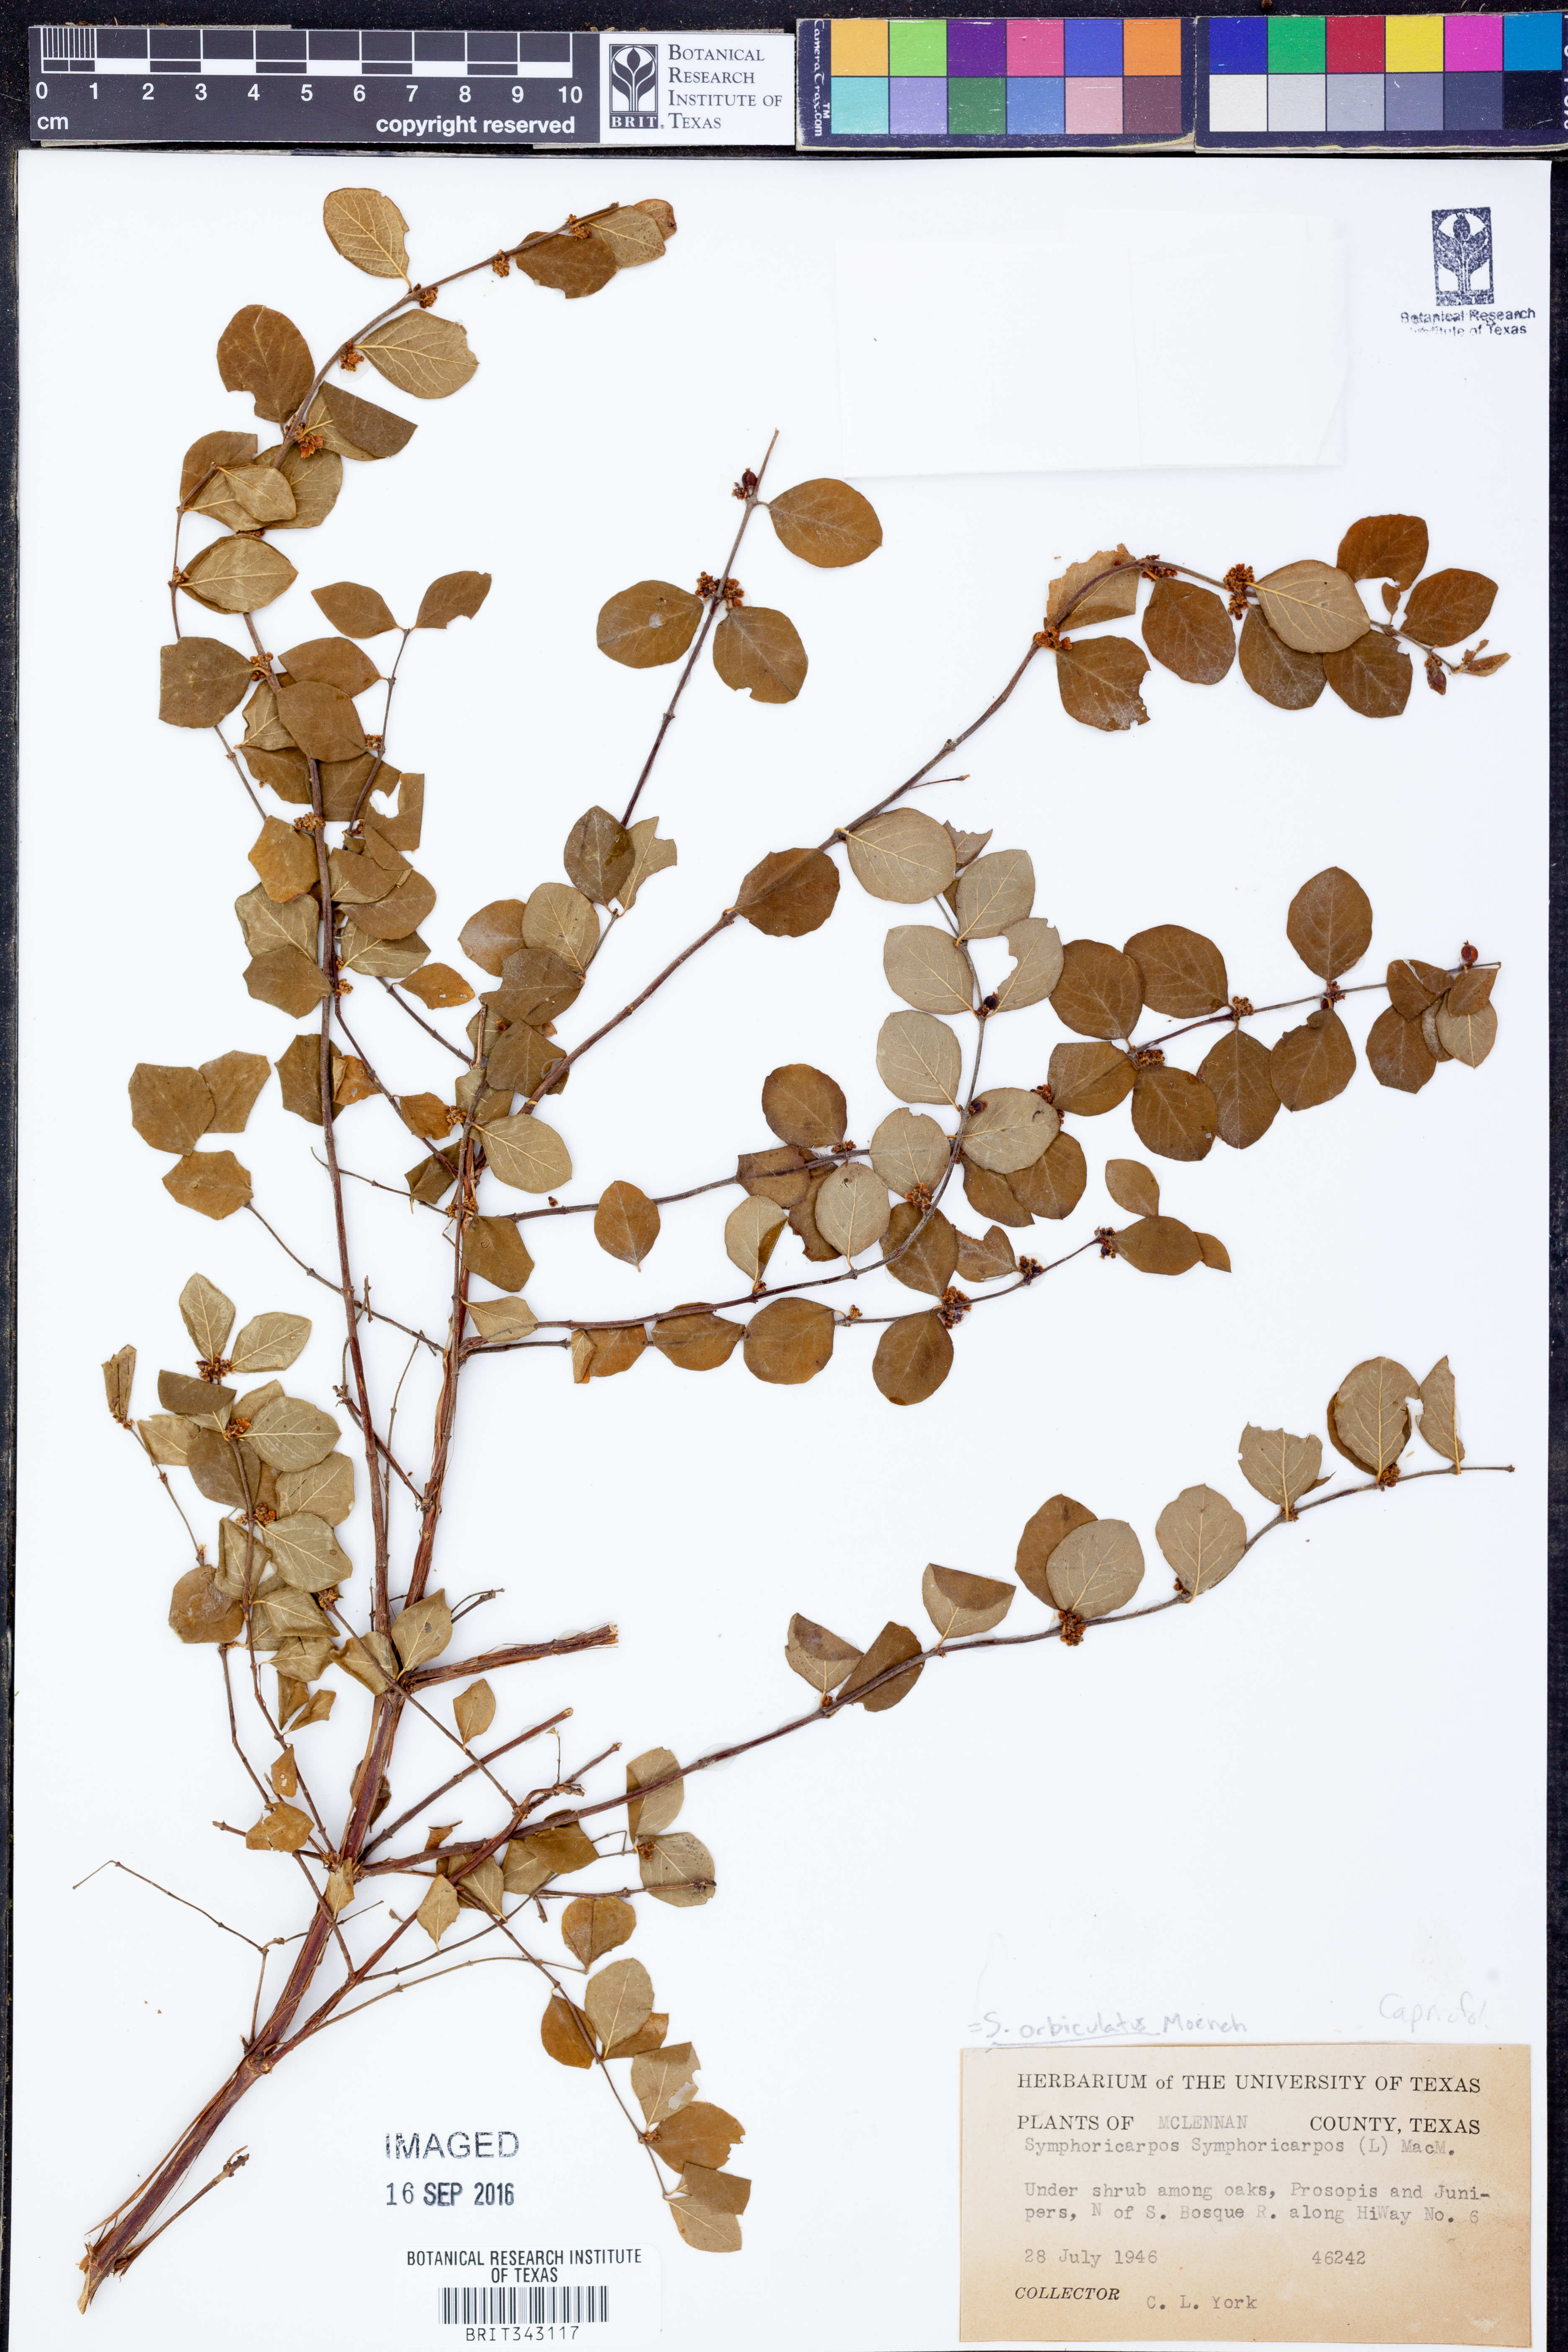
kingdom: Plantae
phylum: Tracheophyta
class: Magnoliopsida
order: Dipsacales
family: Caprifoliaceae
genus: Symphoricarpos
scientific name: Symphoricarpos orbiculatus
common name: Coralberry
